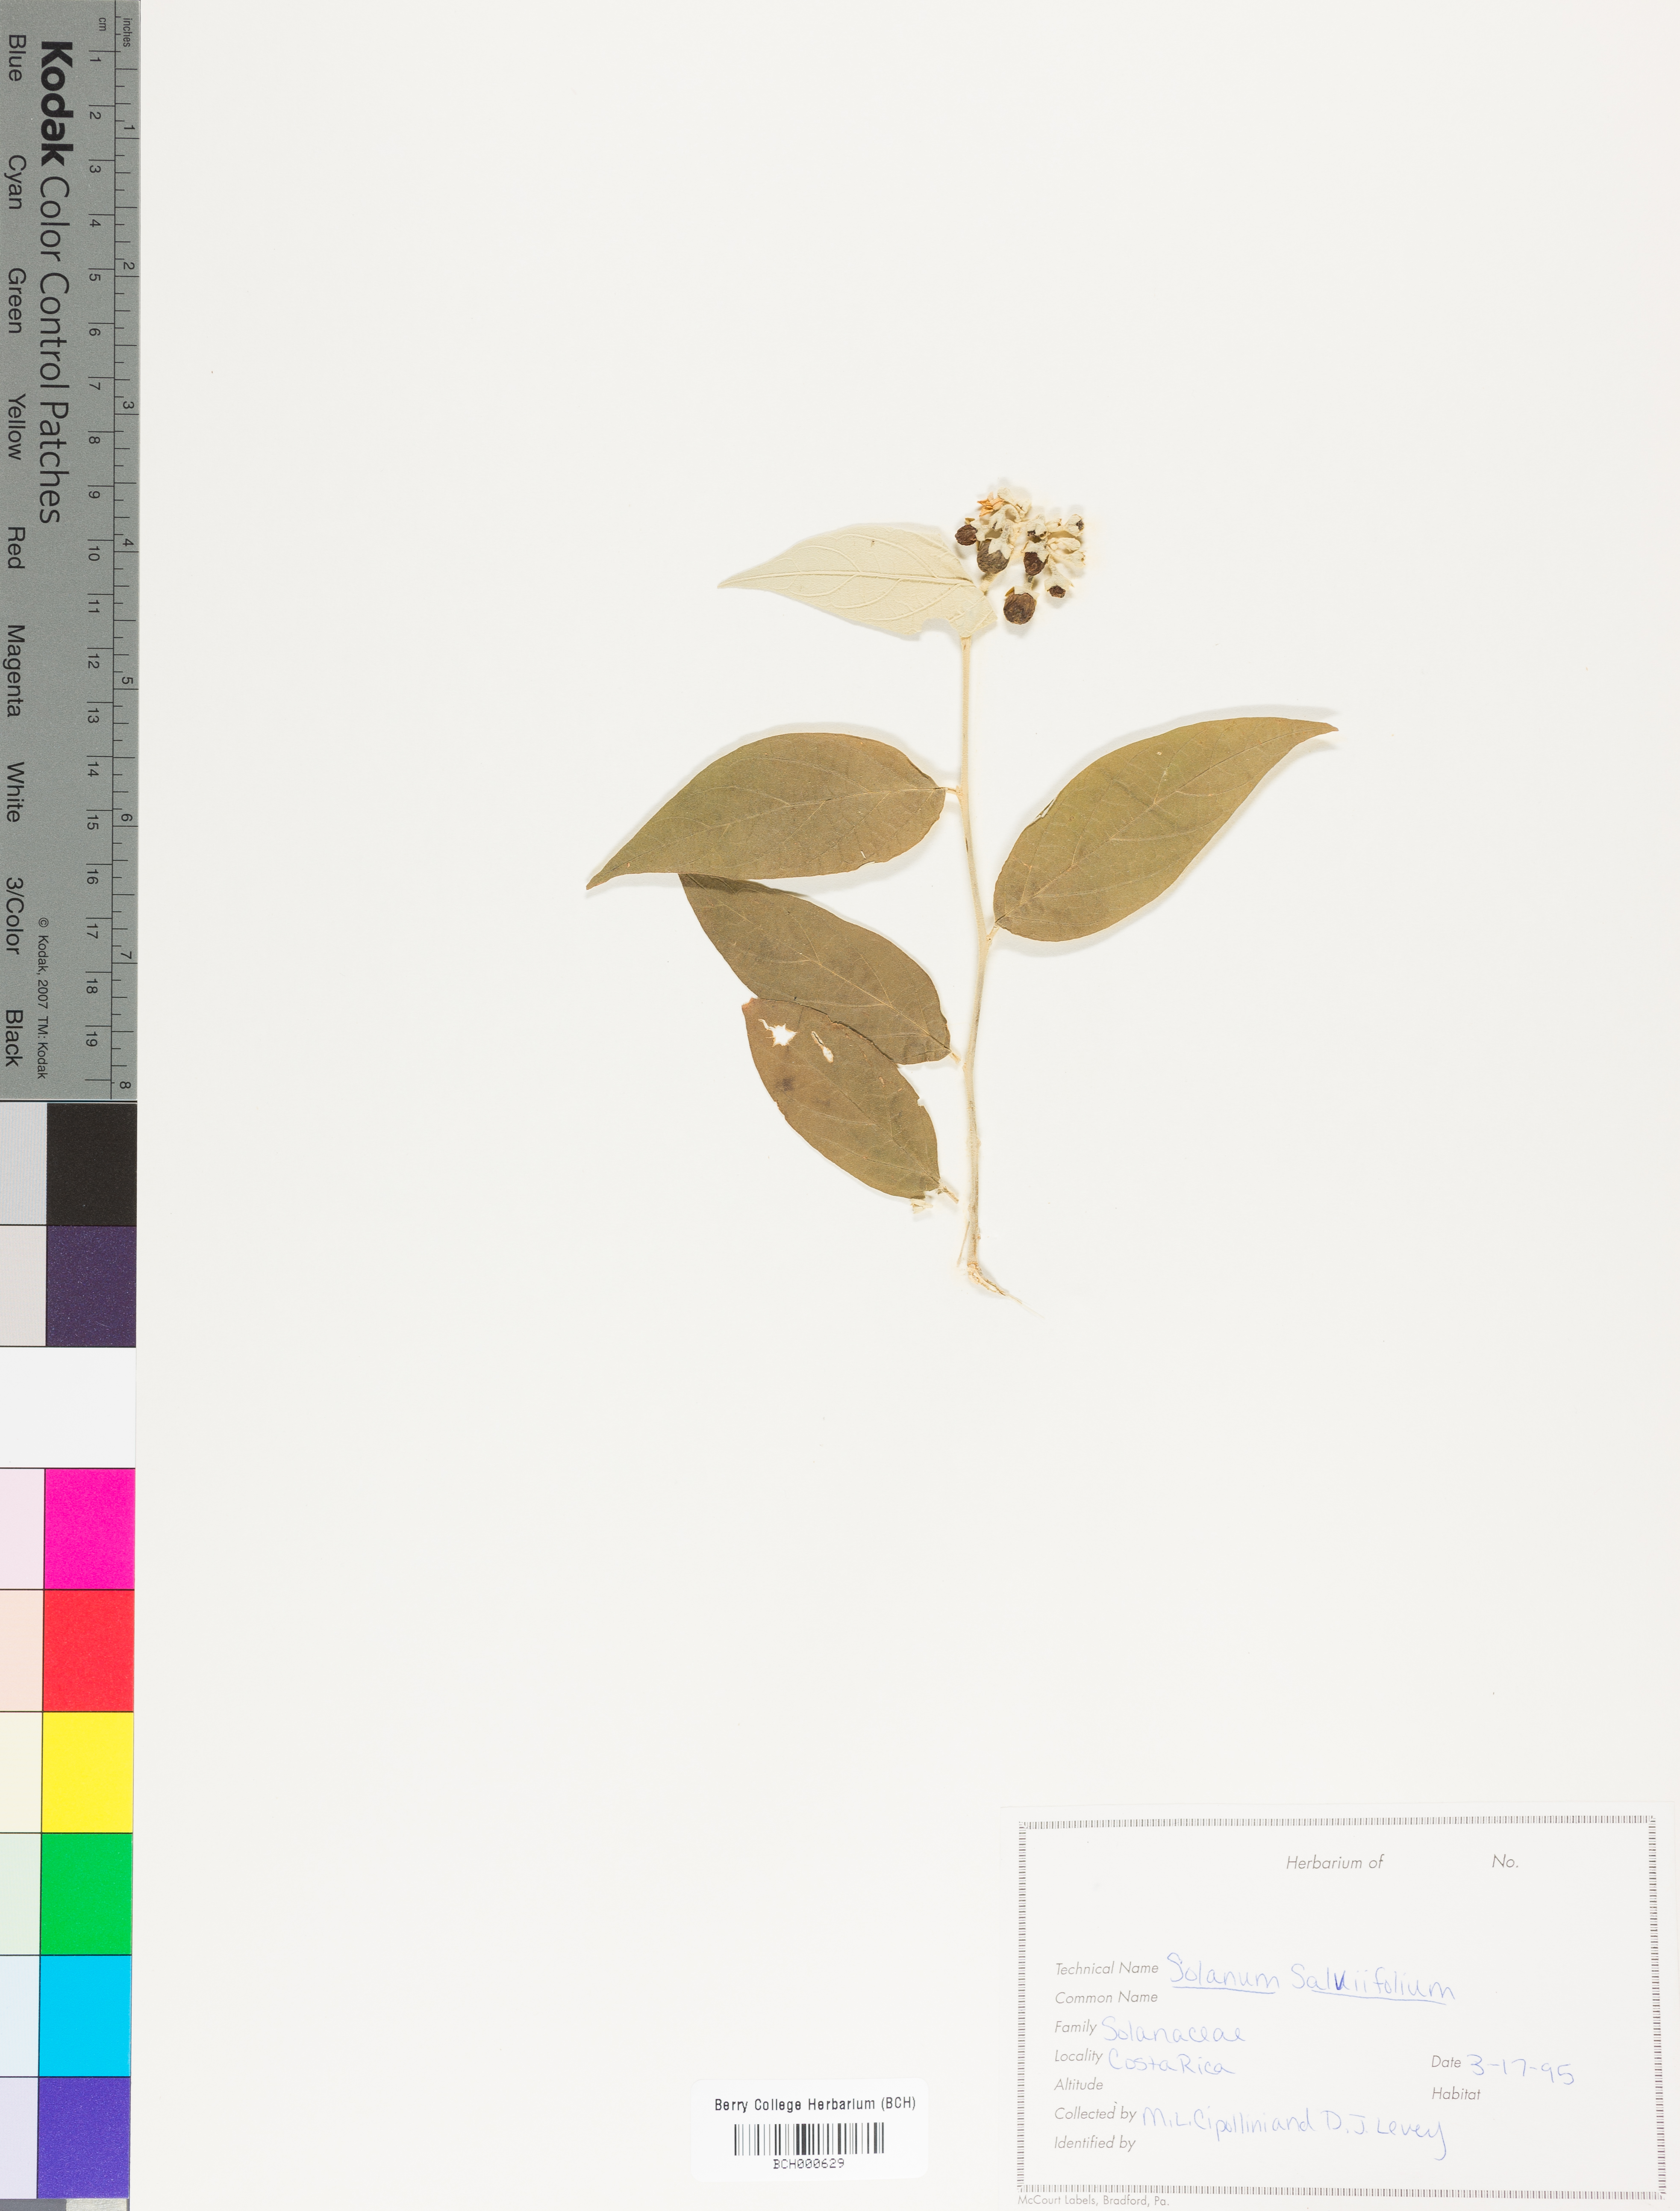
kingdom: Plantae
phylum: Tracheophyta
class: Magnoliopsida
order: Solanales
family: Solanaceae
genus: Solanum
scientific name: Solanum gardneri
